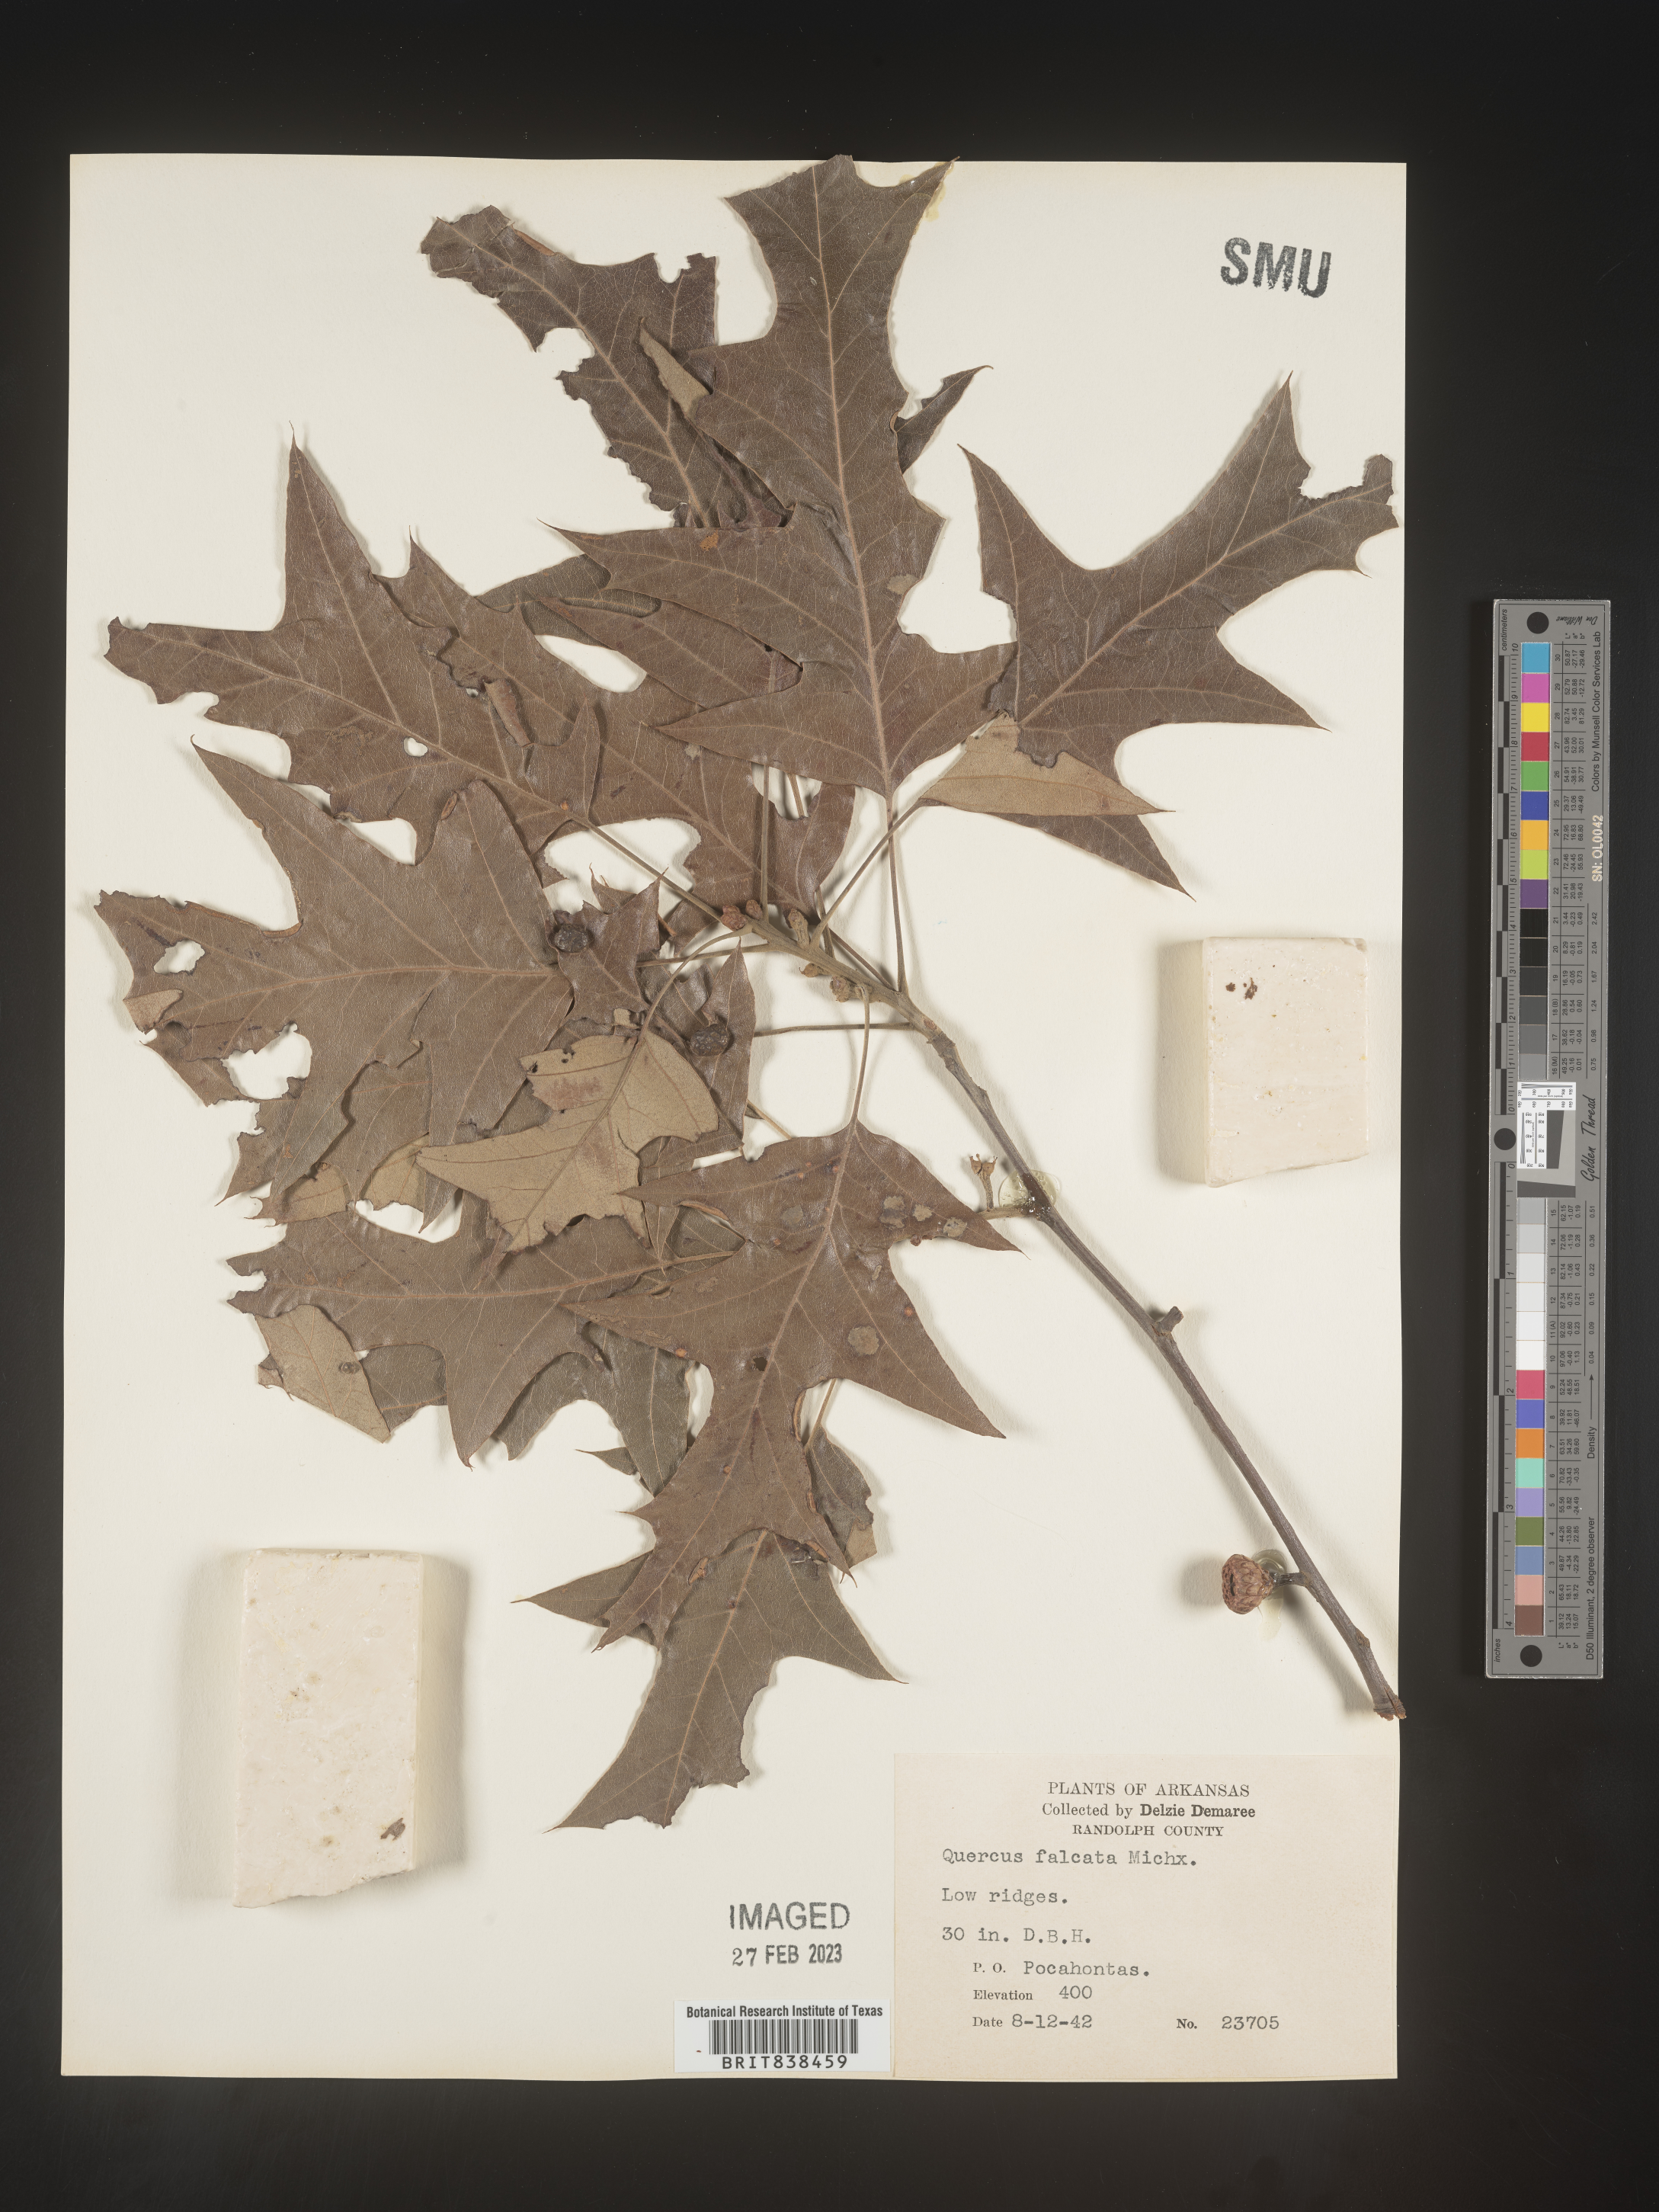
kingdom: Plantae
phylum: Tracheophyta
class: Magnoliopsida
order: Fagales
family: Fagaceae
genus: Quercus
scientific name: Quercus falcata
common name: Southern red oak
